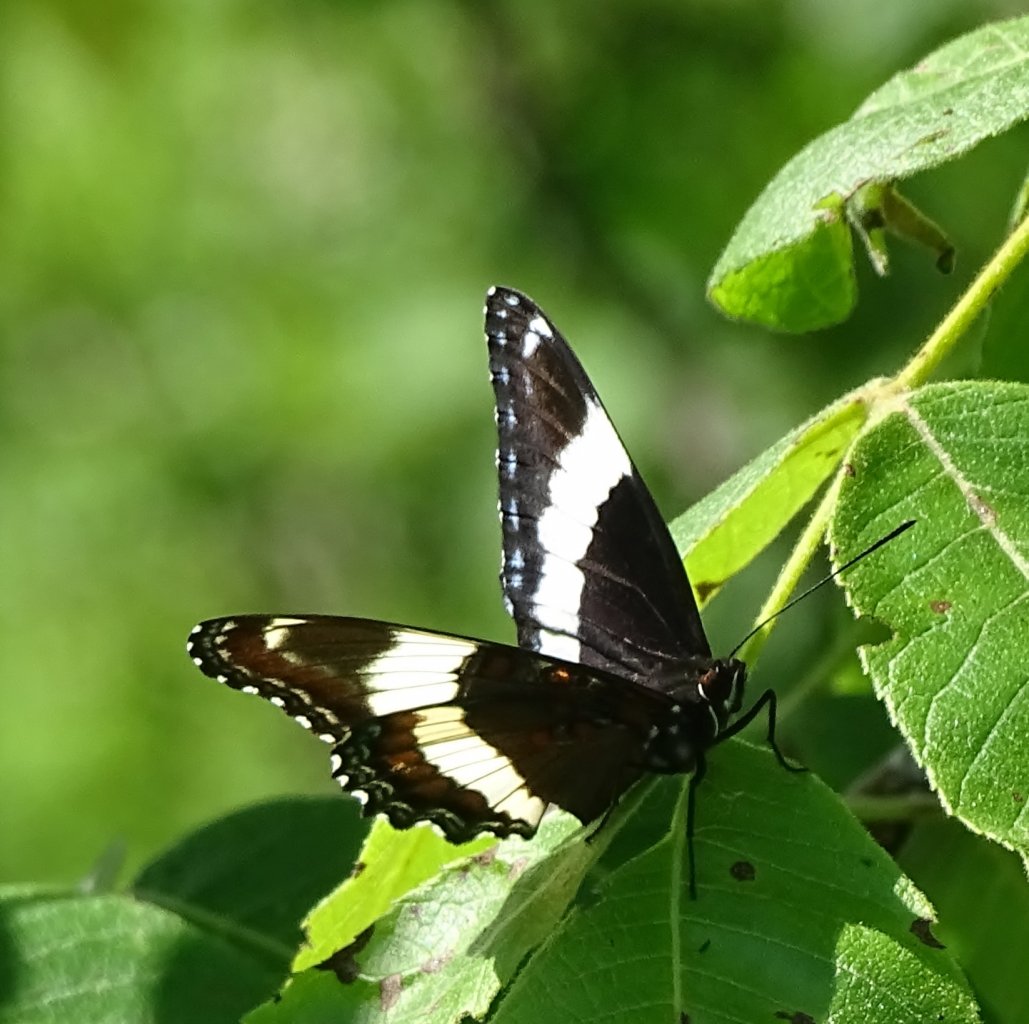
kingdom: Animalia
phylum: Arthropoda
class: Insecta
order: Lepidoptera
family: Nymphalidae
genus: Limenitis
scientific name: Limenitis arthemis
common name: Red-spotted Admiral
